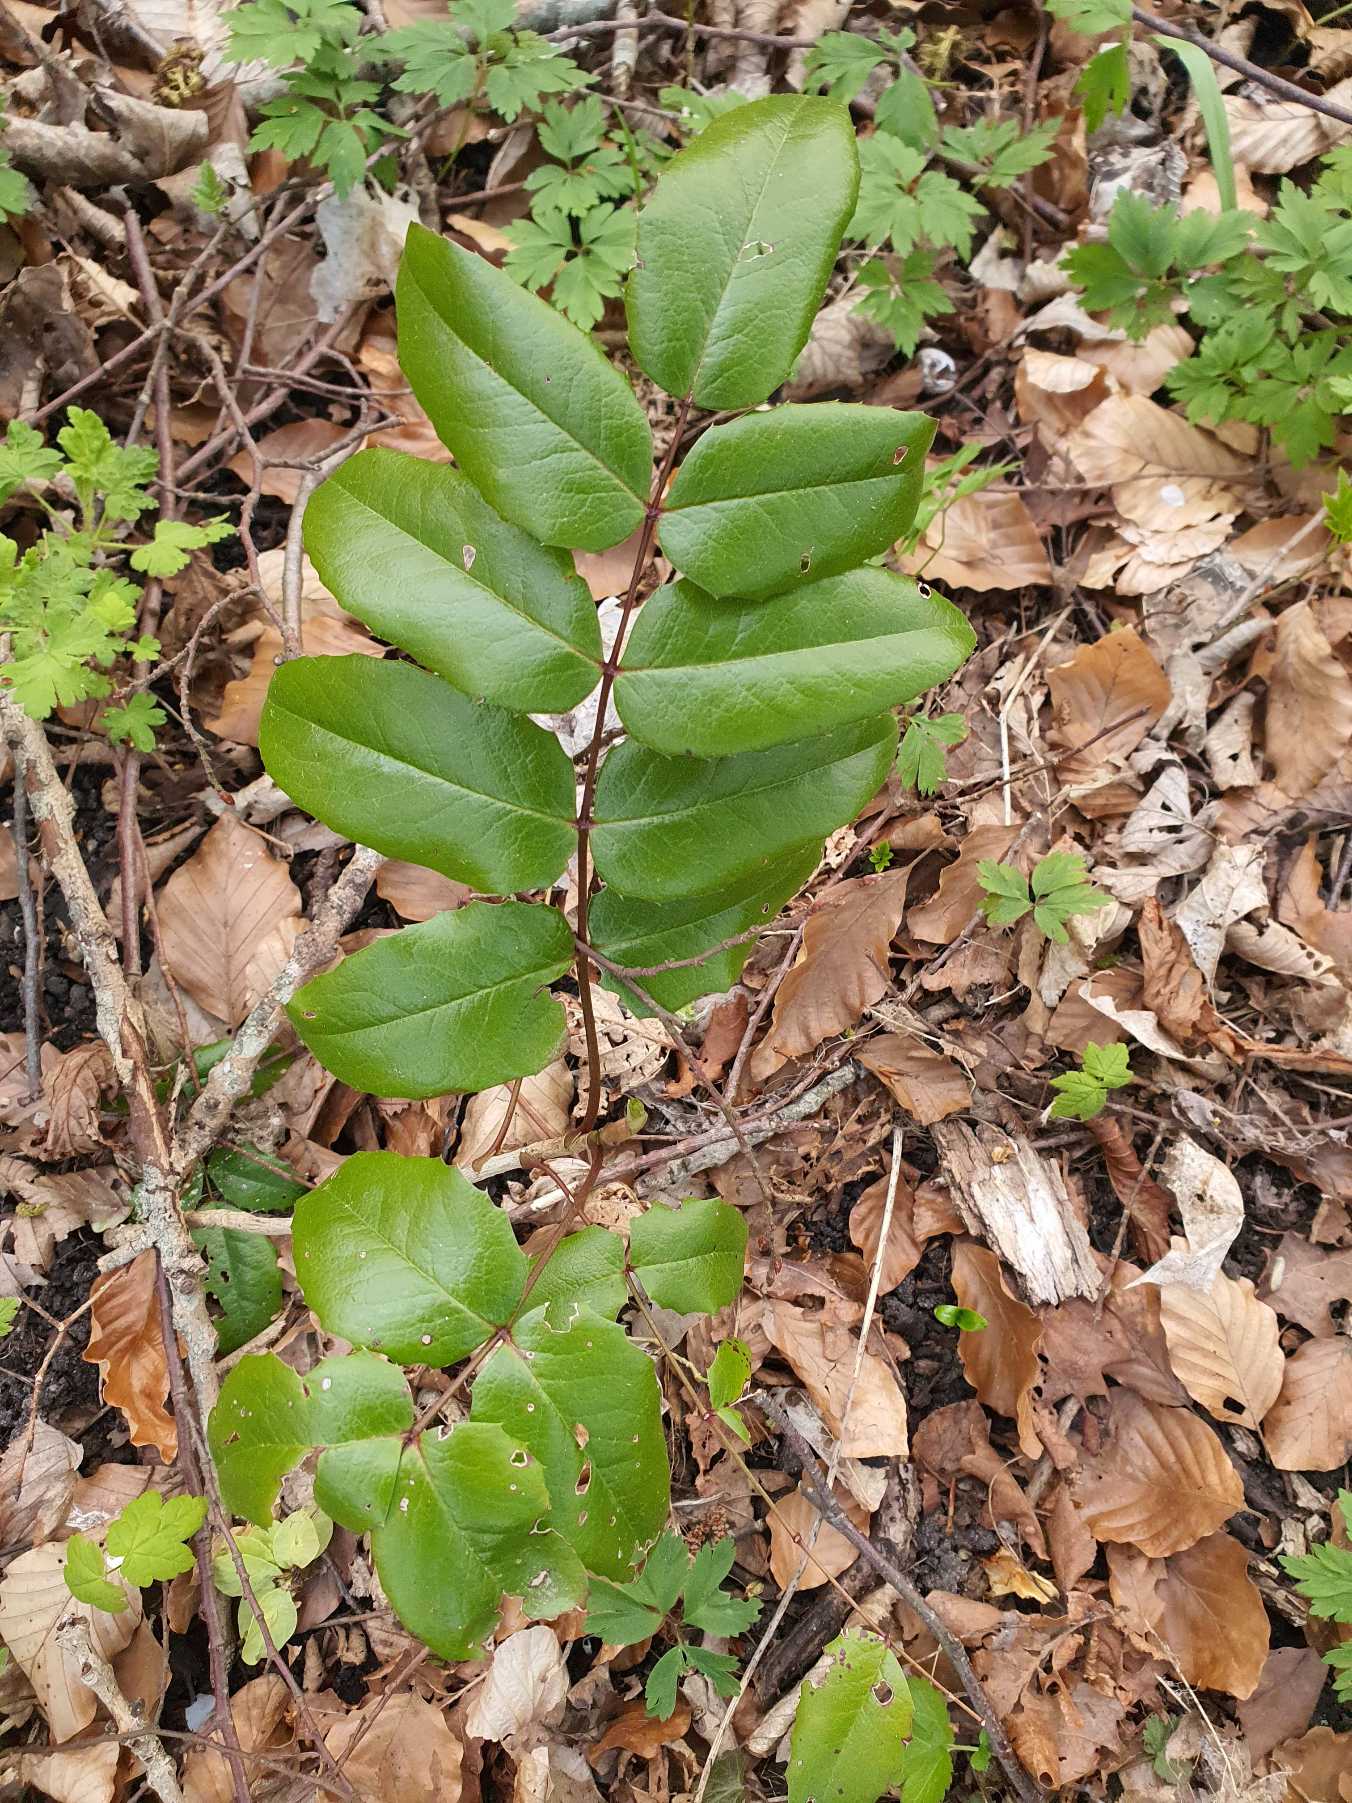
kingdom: Plantae
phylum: Tracheophyta
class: Magnoliopsida
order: Ranunculales
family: Berberidaceae
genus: Mahonia
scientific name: Mahonia aquifolium
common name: Almindelig mahonie
